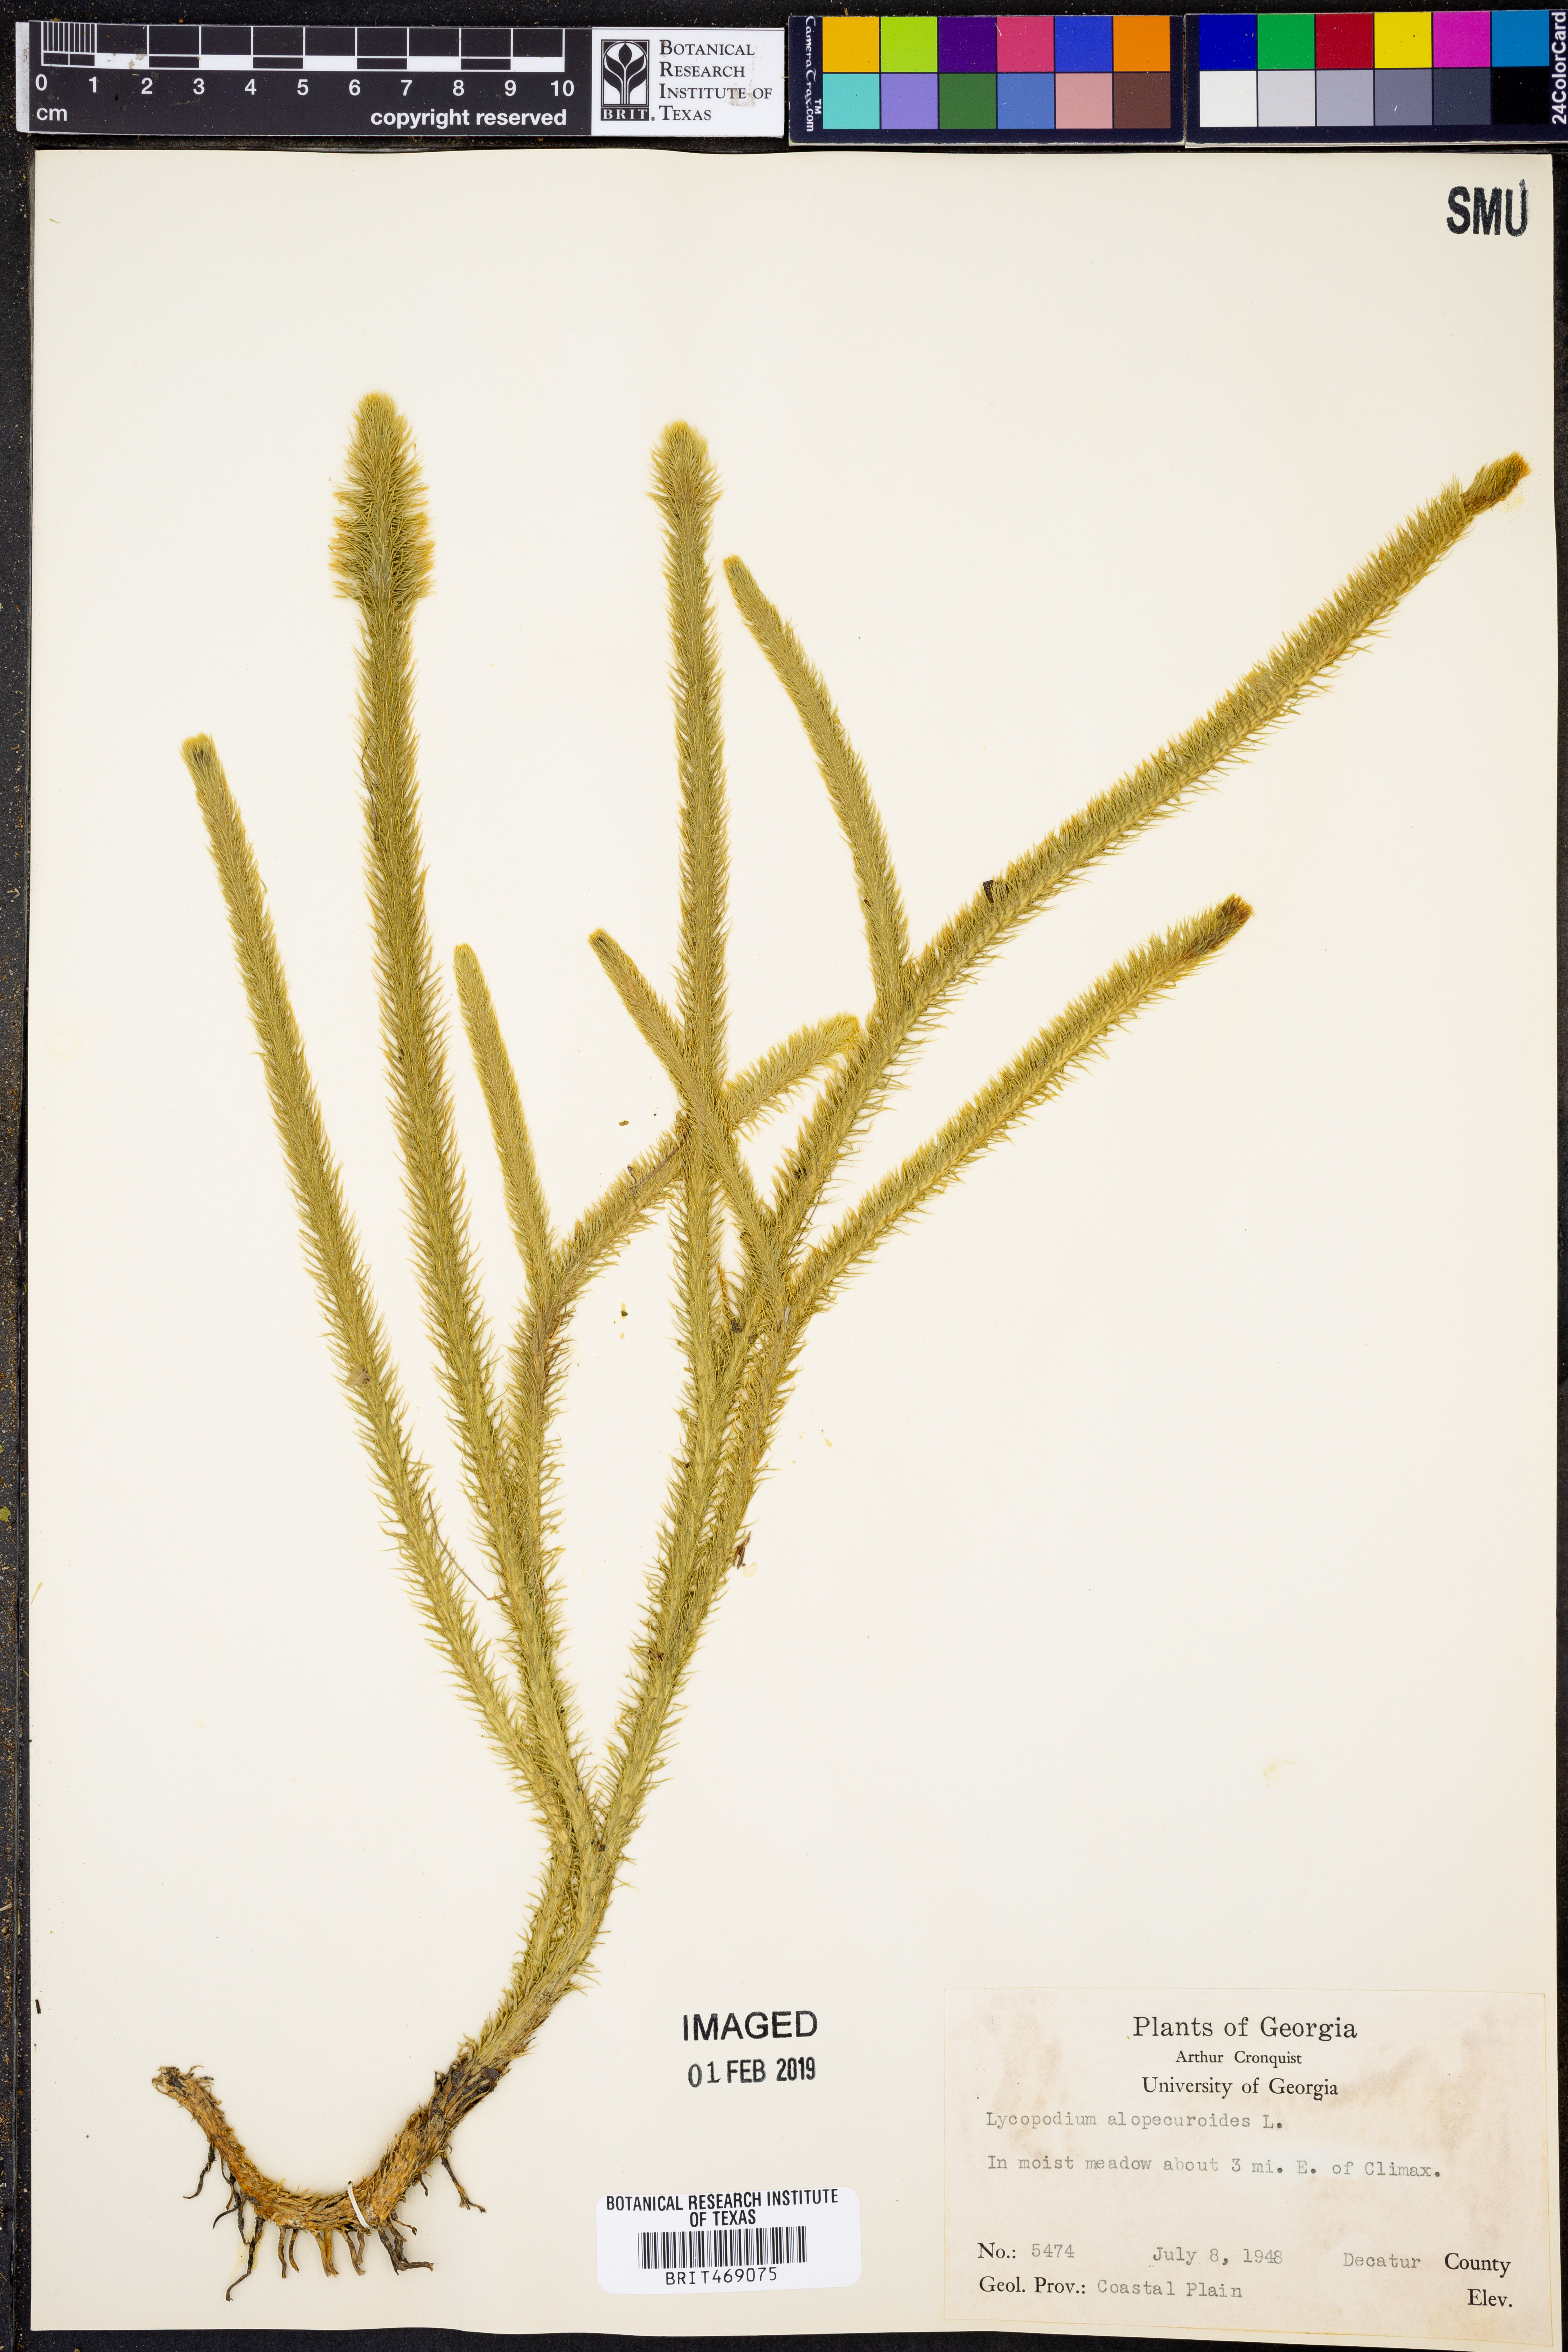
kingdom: Plantae
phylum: Tracheophyta
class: Lycopodiopsida
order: Lycopodiales
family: Lycopodiaceae
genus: Lycopodiella
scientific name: Lycopodiella alopecuroides
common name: Foxtail clubmoss
